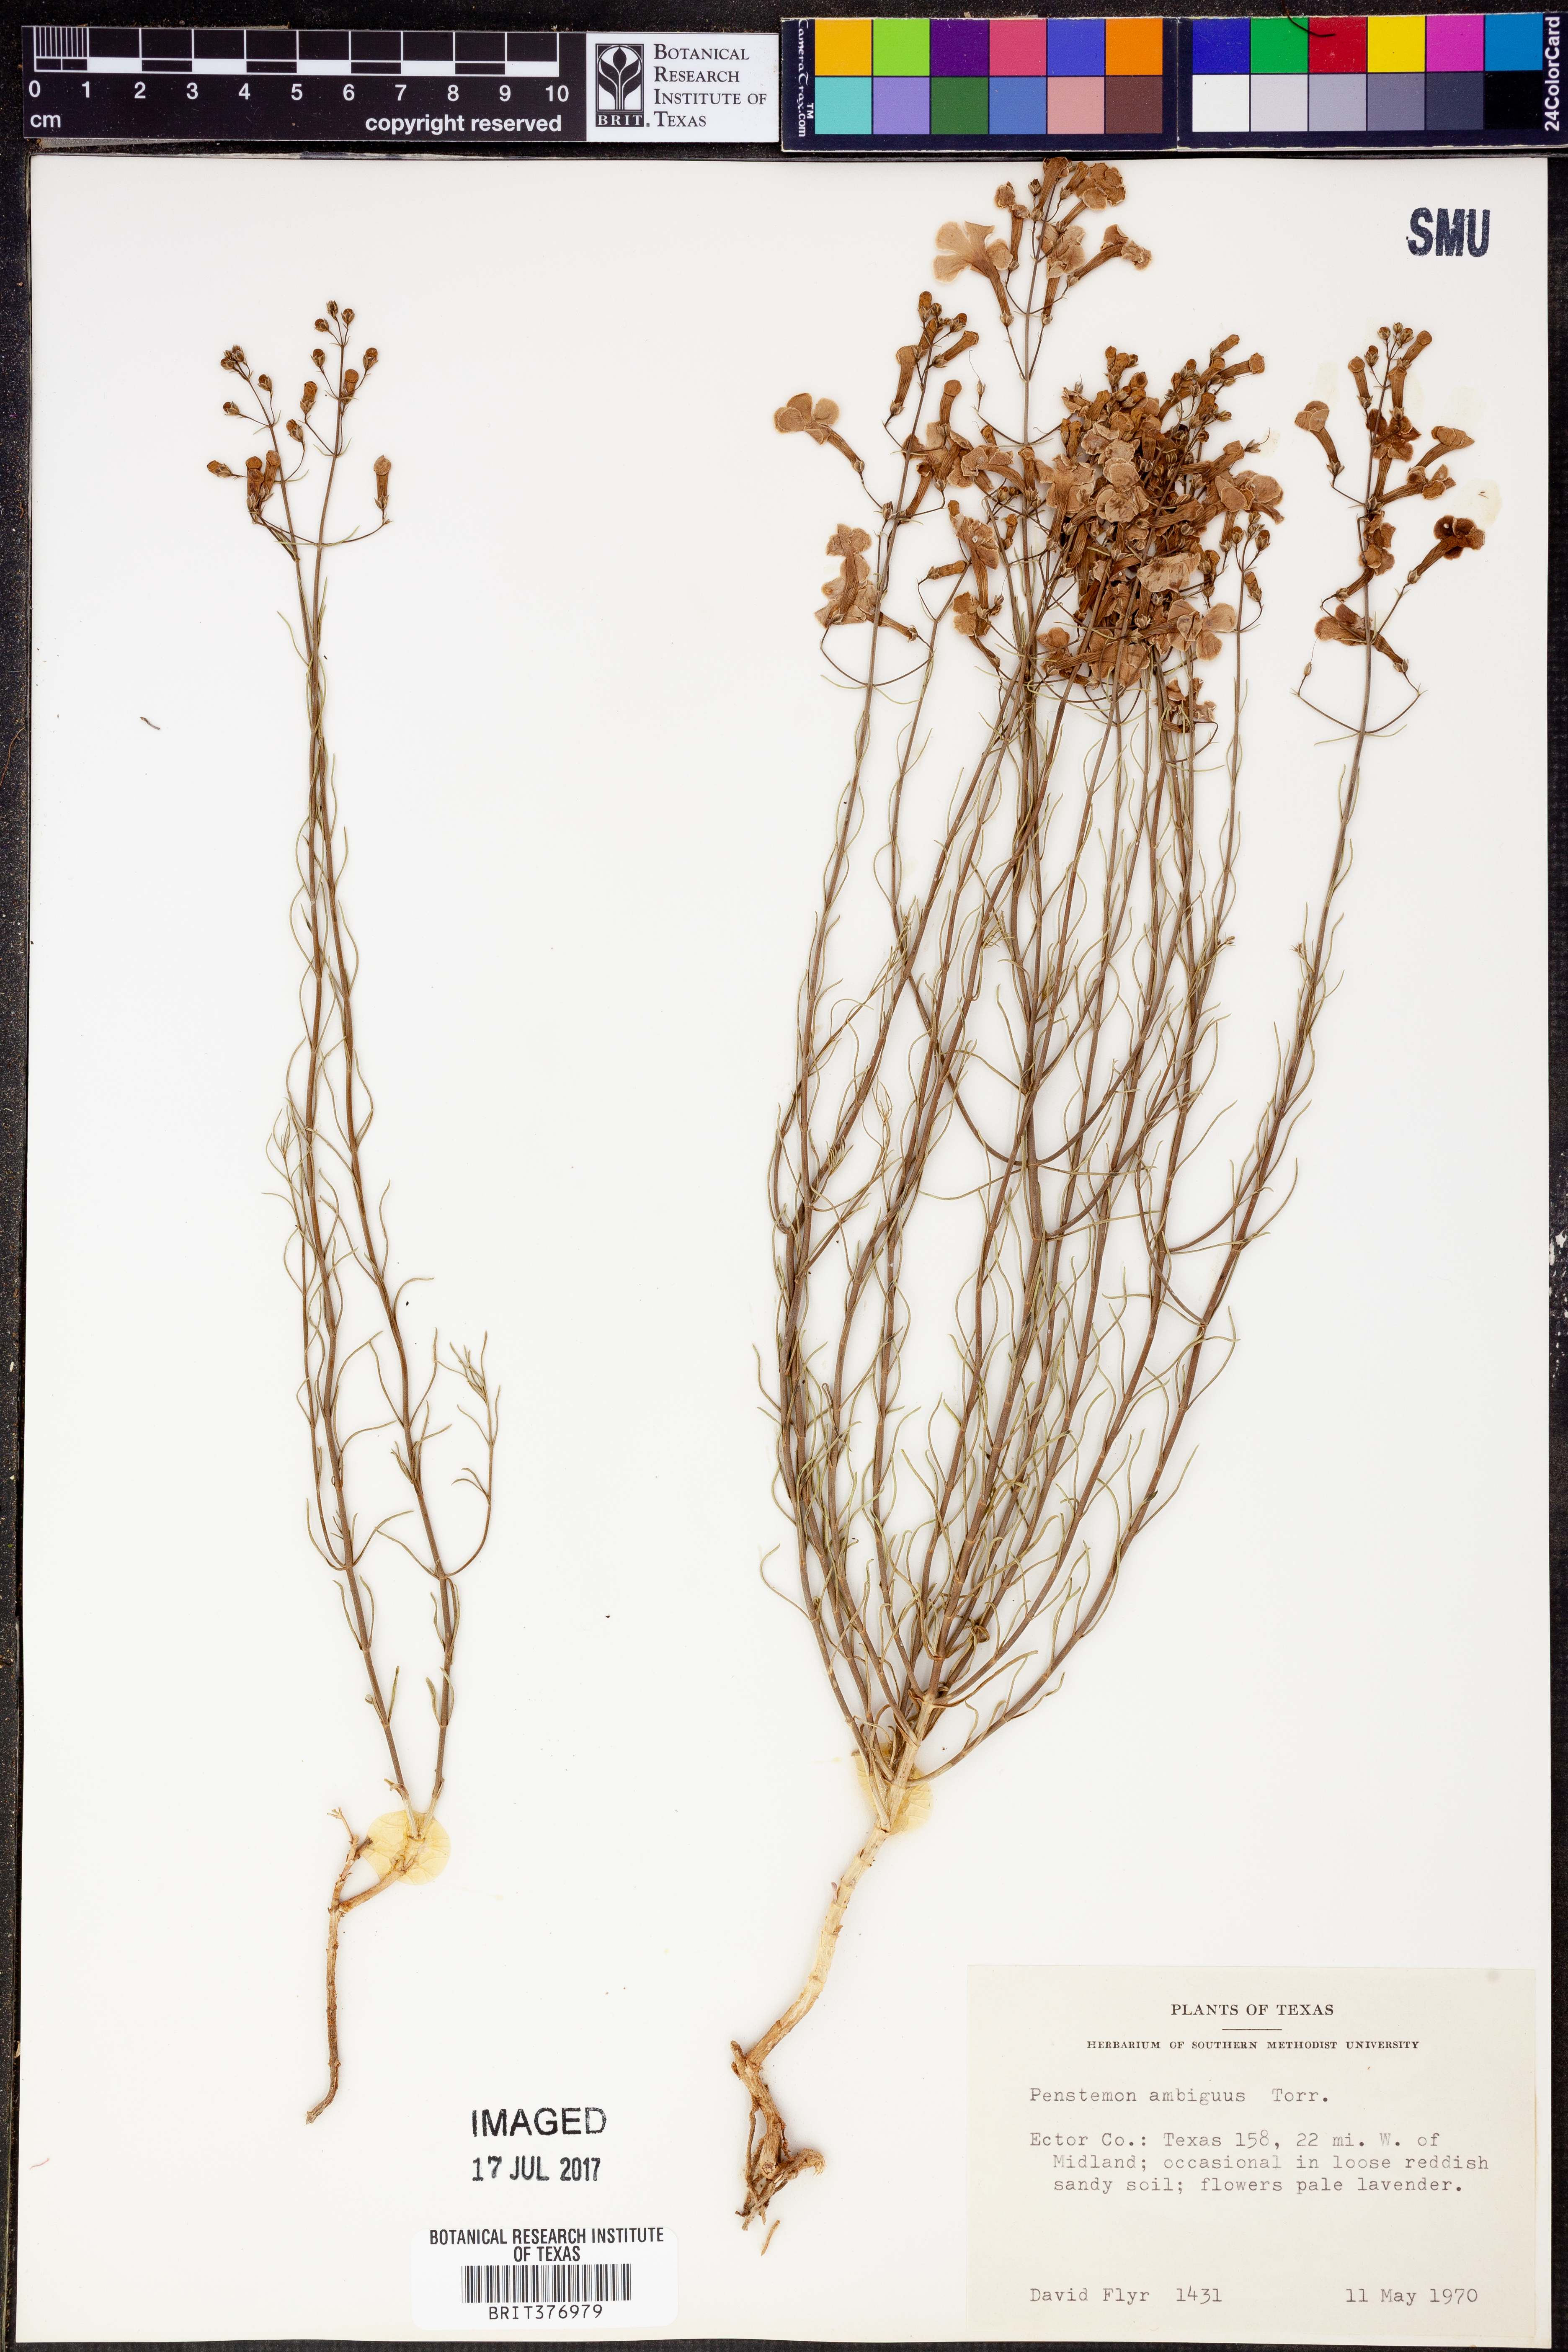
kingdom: Plantae
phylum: Tracheophyta
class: Magnoliopsida
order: Lamiales
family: Plantaginaceae
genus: Penstemon
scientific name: Penstemon ambiguus
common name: Bush penstemon
